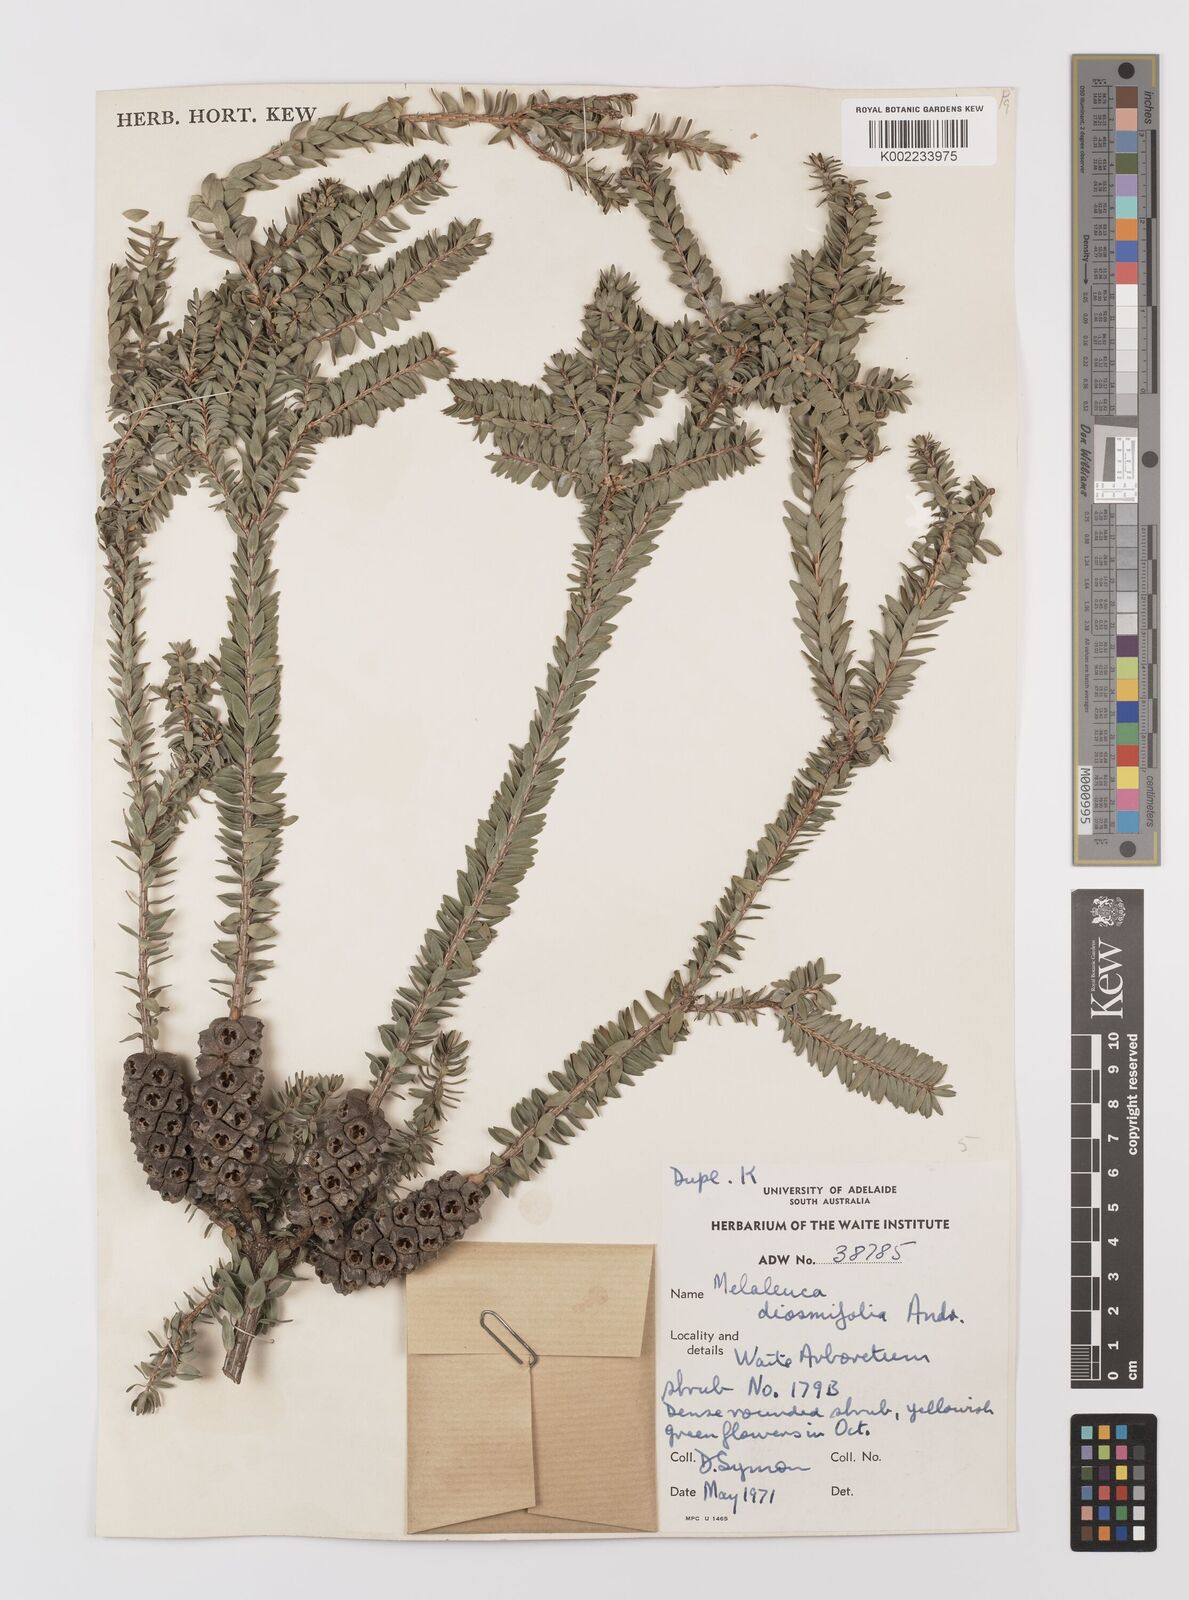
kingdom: Plantae
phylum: Tracheophyta
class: Magnoliopsida
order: Myrtales
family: Myrtaceae
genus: Melaleuca
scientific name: Melaleuca diosmifolia
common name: Green honey myrtle
